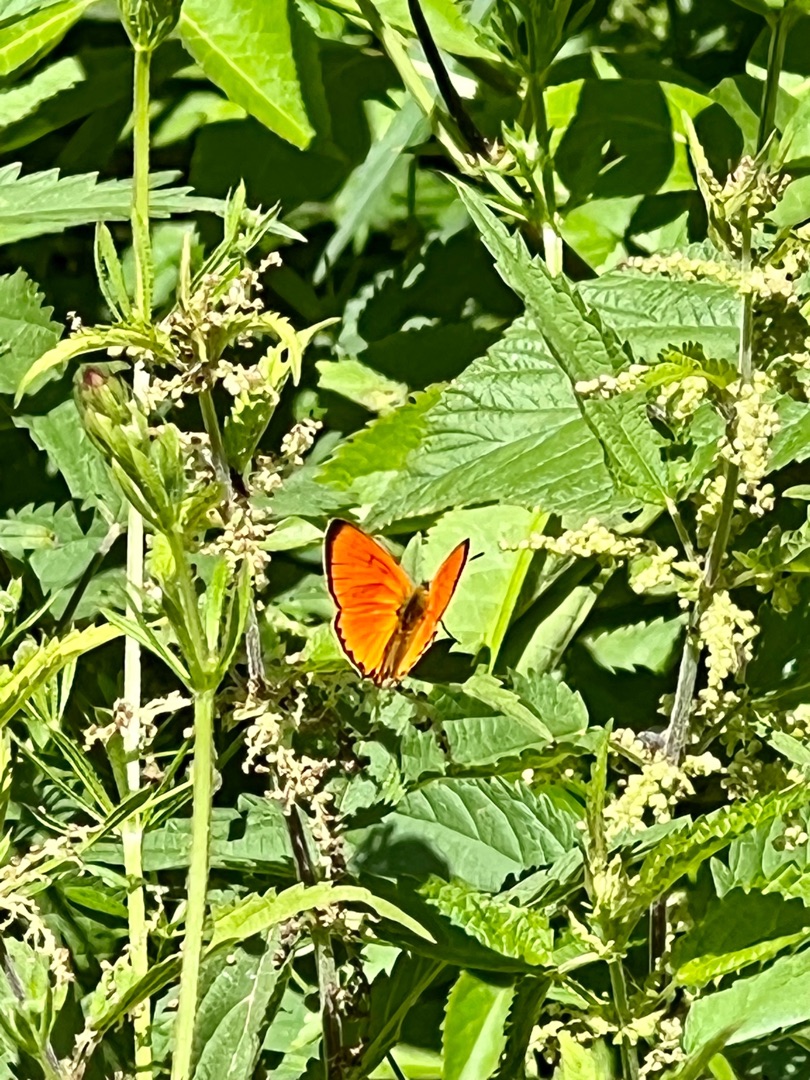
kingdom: Animalia
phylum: Arthropoda
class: Insecta
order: Lepidoptera
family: Lycaenidae
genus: Lycaena
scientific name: Lycaena virgaureae
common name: Dukatsommerfugl
